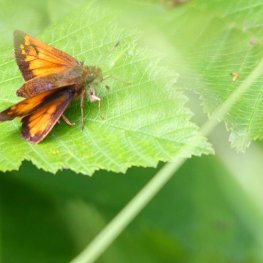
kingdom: Animalia
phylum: Arthropoda
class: Insecta
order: Lepidoptera
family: Hesperiidae
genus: Lon
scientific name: Lon hobomok
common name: Hobomok Skipper
